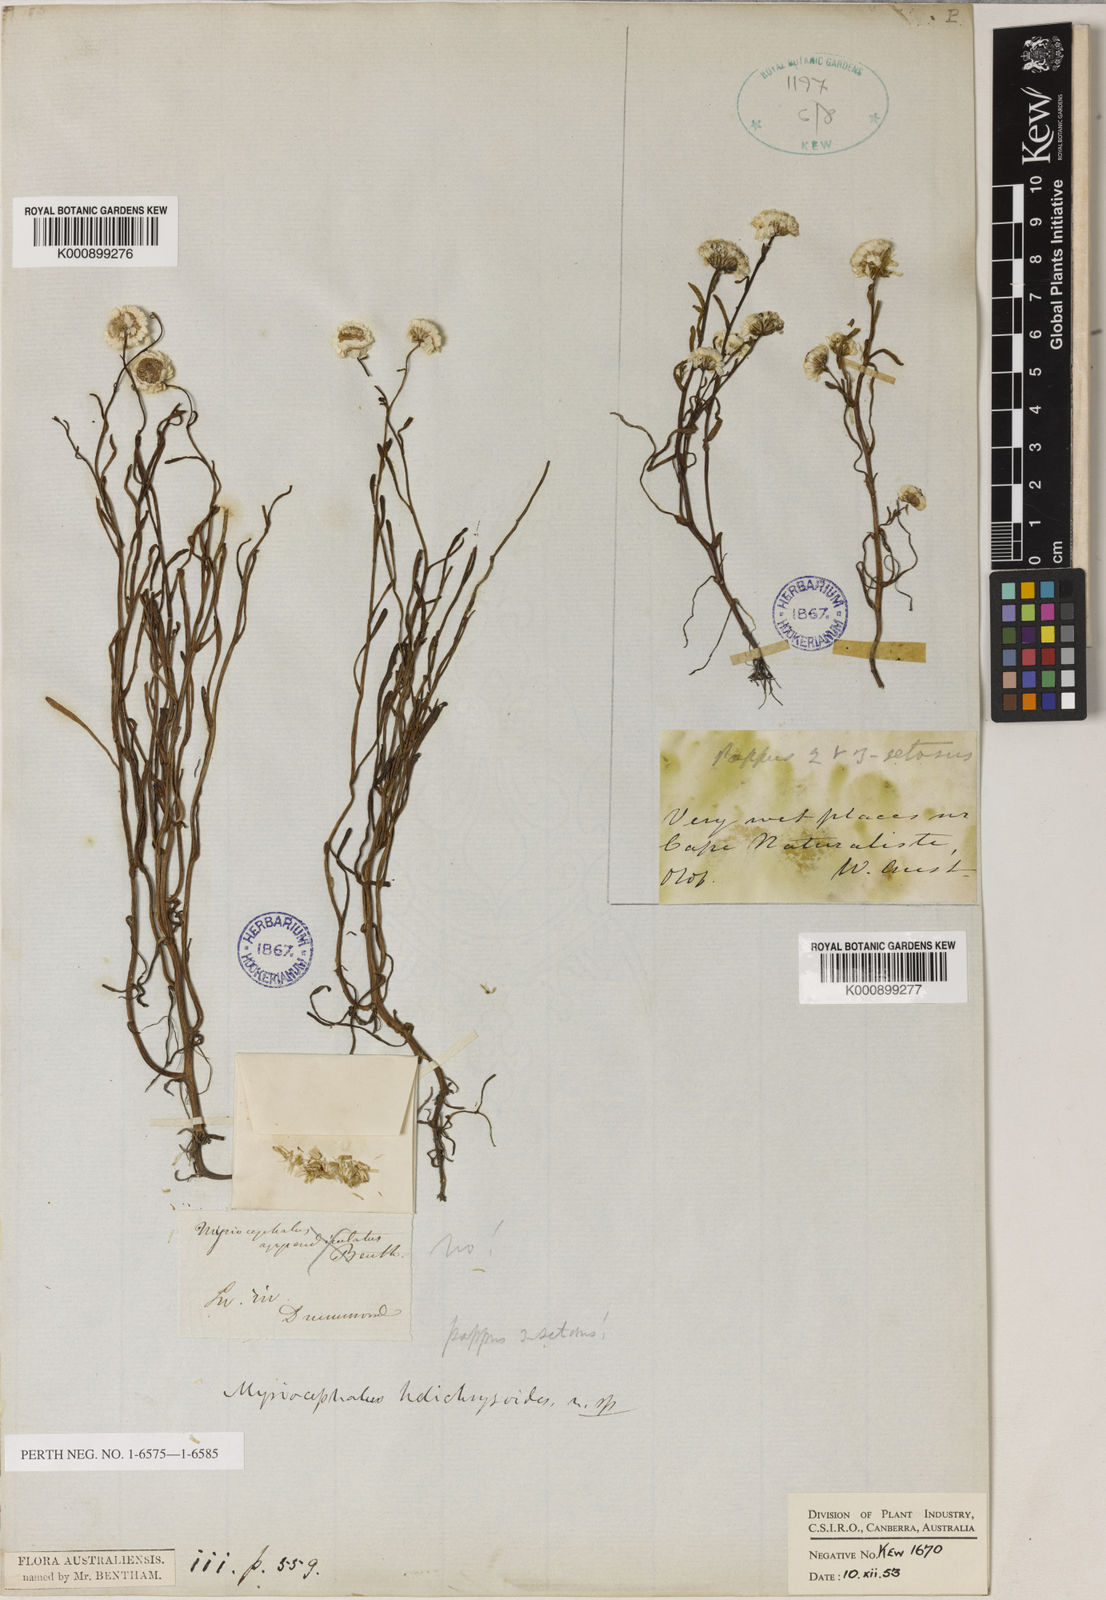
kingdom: Plantae
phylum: Tracheophyta
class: Magnoliopsida
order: Asterales
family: Asteraceae
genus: Myriocephalus
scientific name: Myriocephalus helichrysoides
